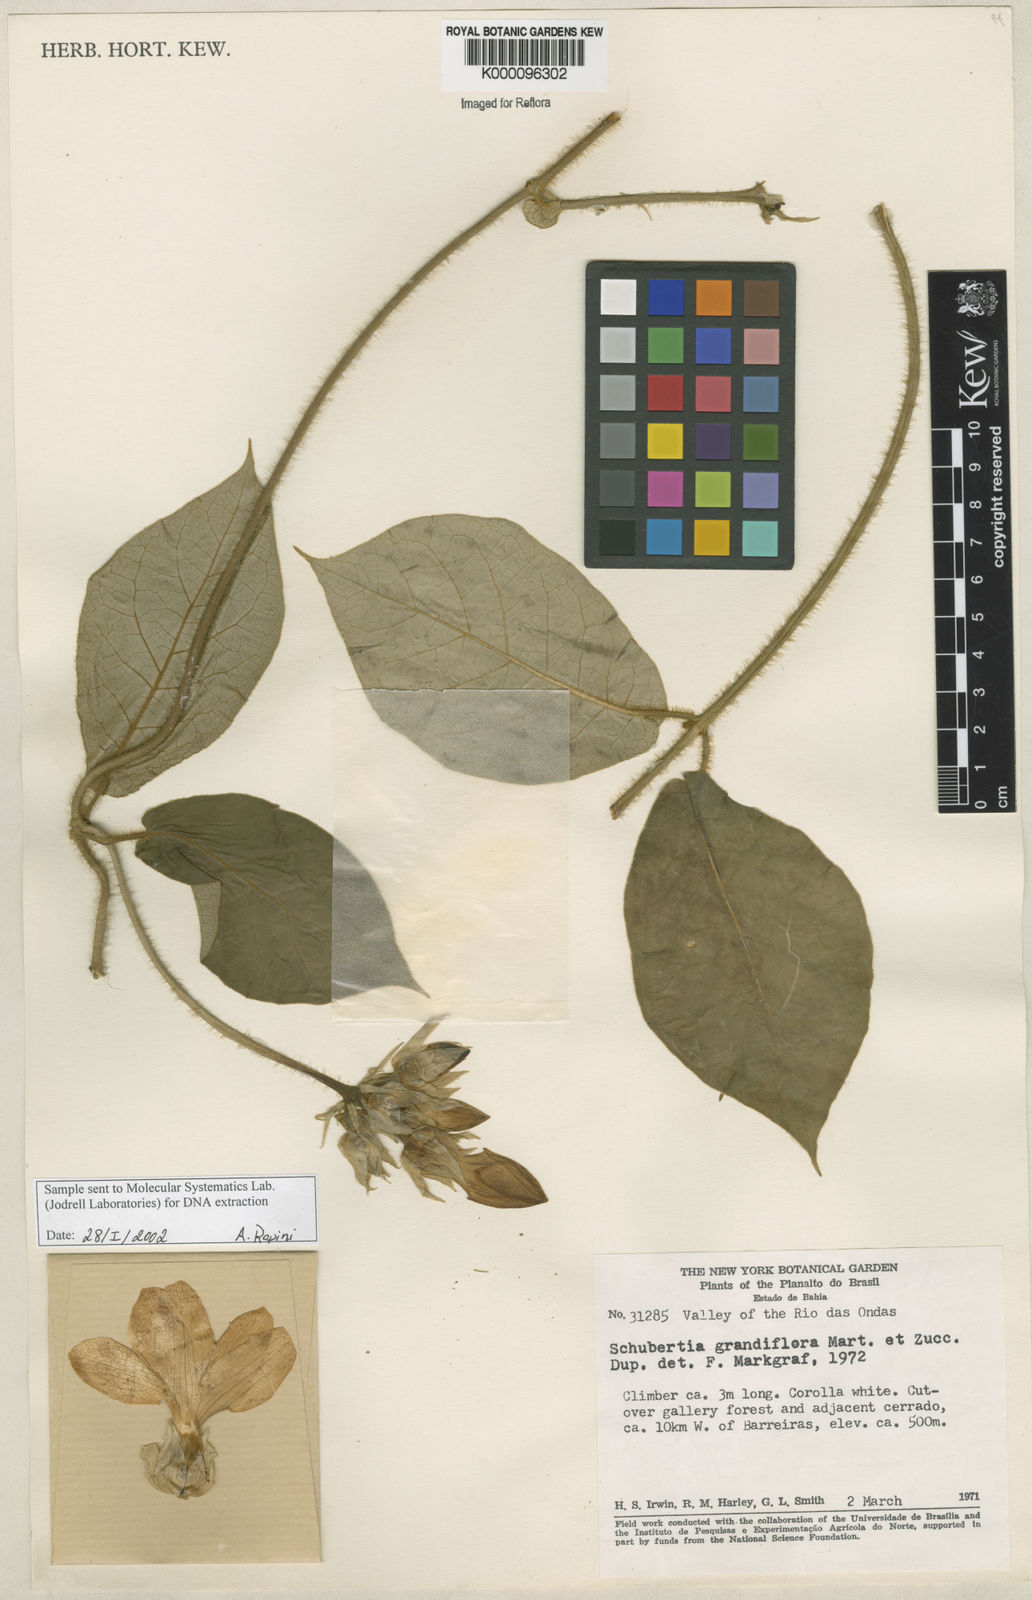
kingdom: Plantae
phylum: Tracheophyta
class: Magnoliopsida
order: Gentianales
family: Apocynaceae
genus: Macroscepis
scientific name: Macroscepis grandiflora
